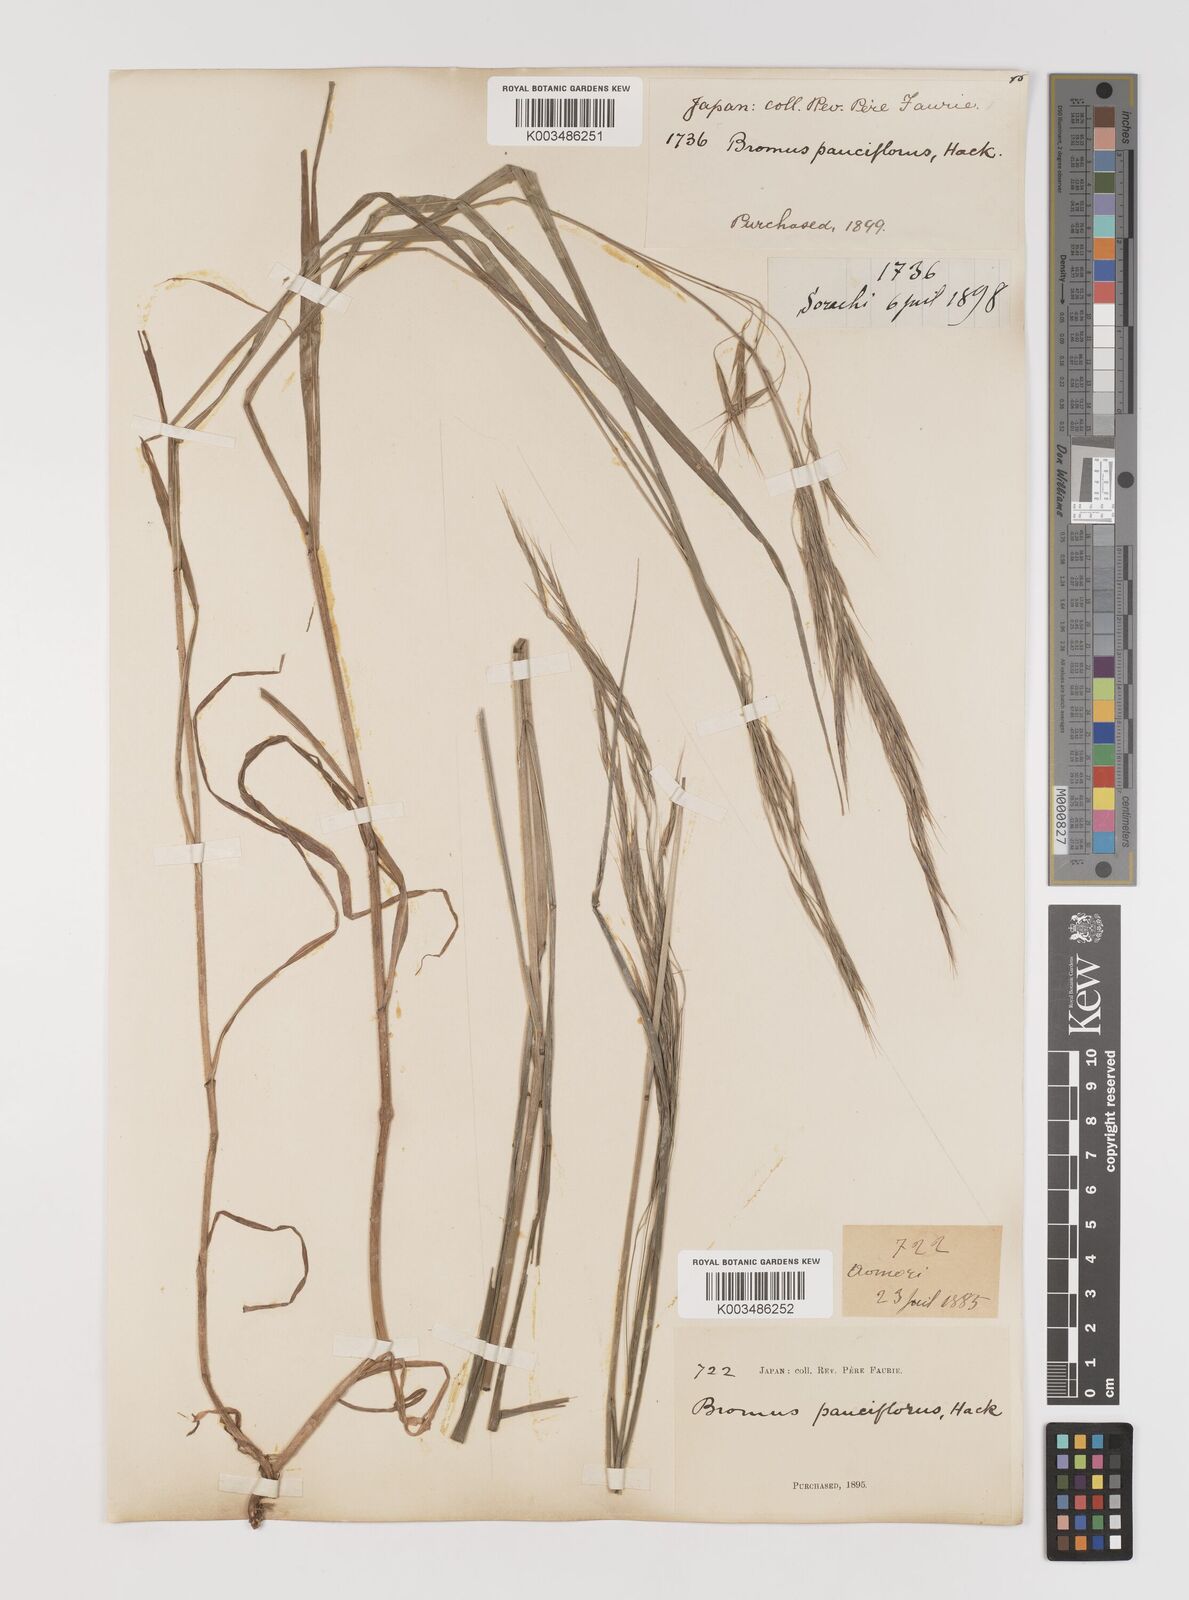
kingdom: Plantae
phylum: Tracheophyta
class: Liliopsida
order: Poales
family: Poaceae
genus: Bromus
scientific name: Bromus remotiflorus
